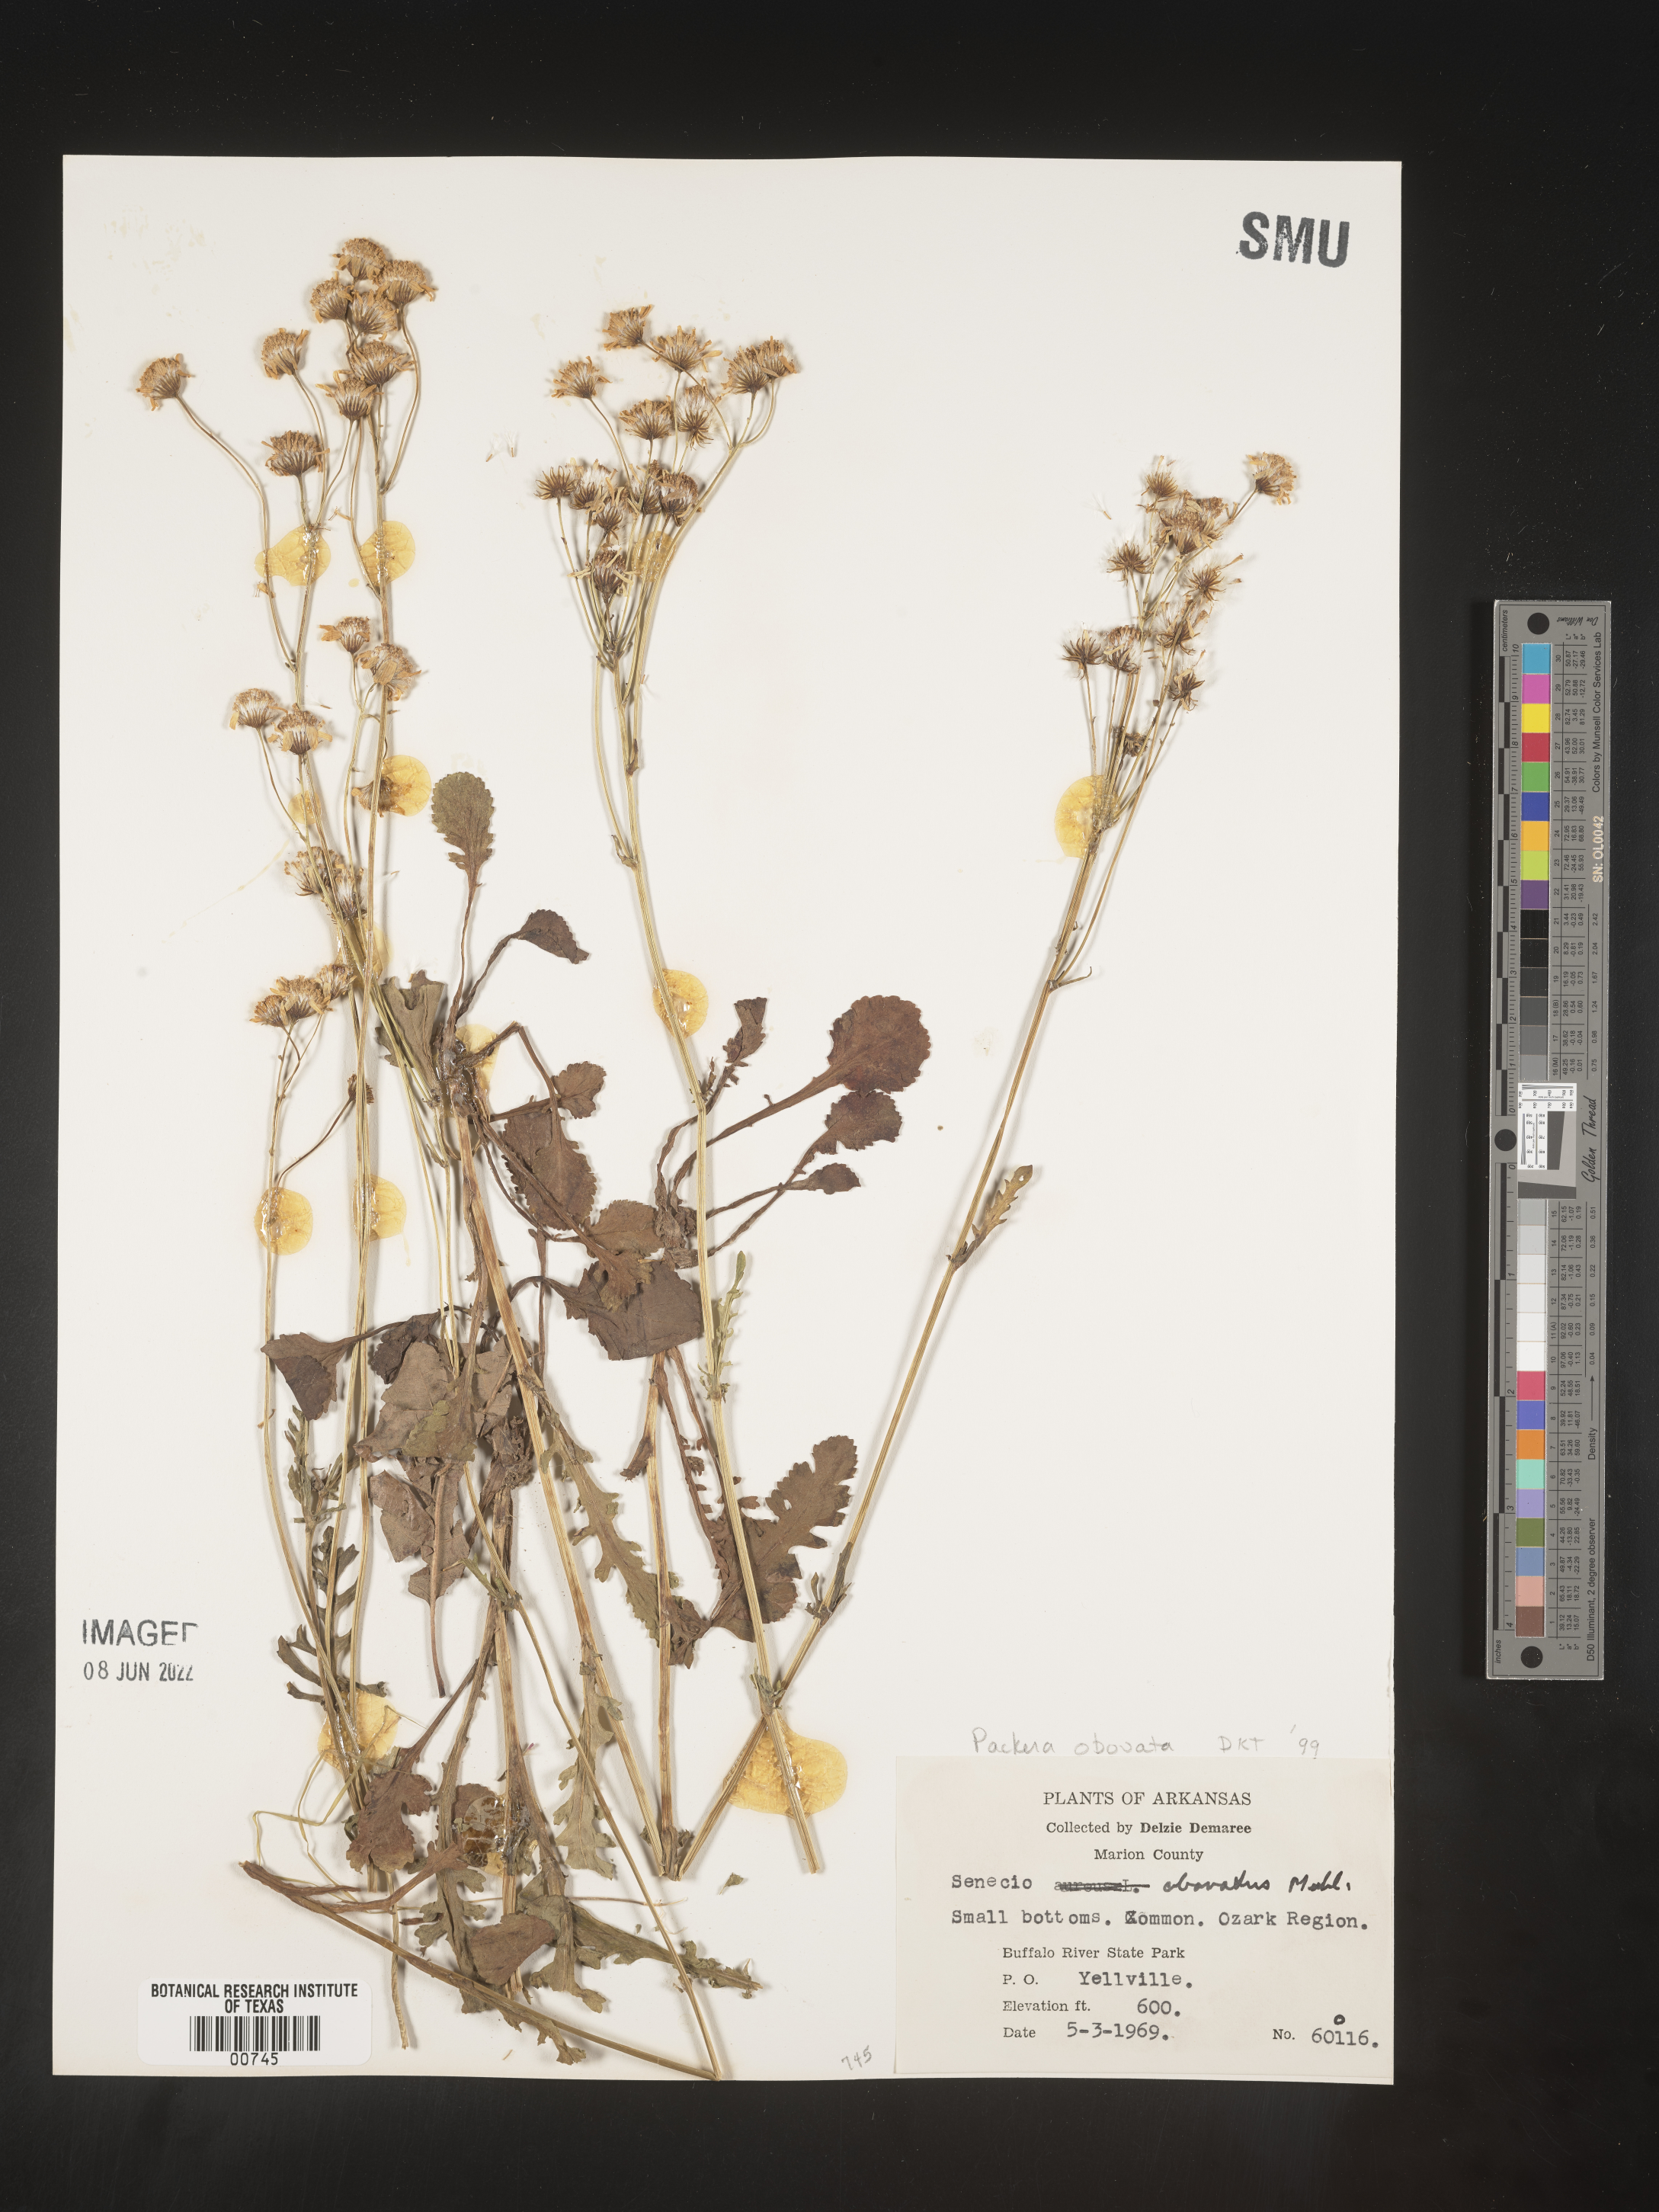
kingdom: Plantae
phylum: Tracheophyta
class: Magnoliopsida
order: Asterales
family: Asteraceae
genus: Packera
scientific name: Packera obovata
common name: Round-leaf ragwort
